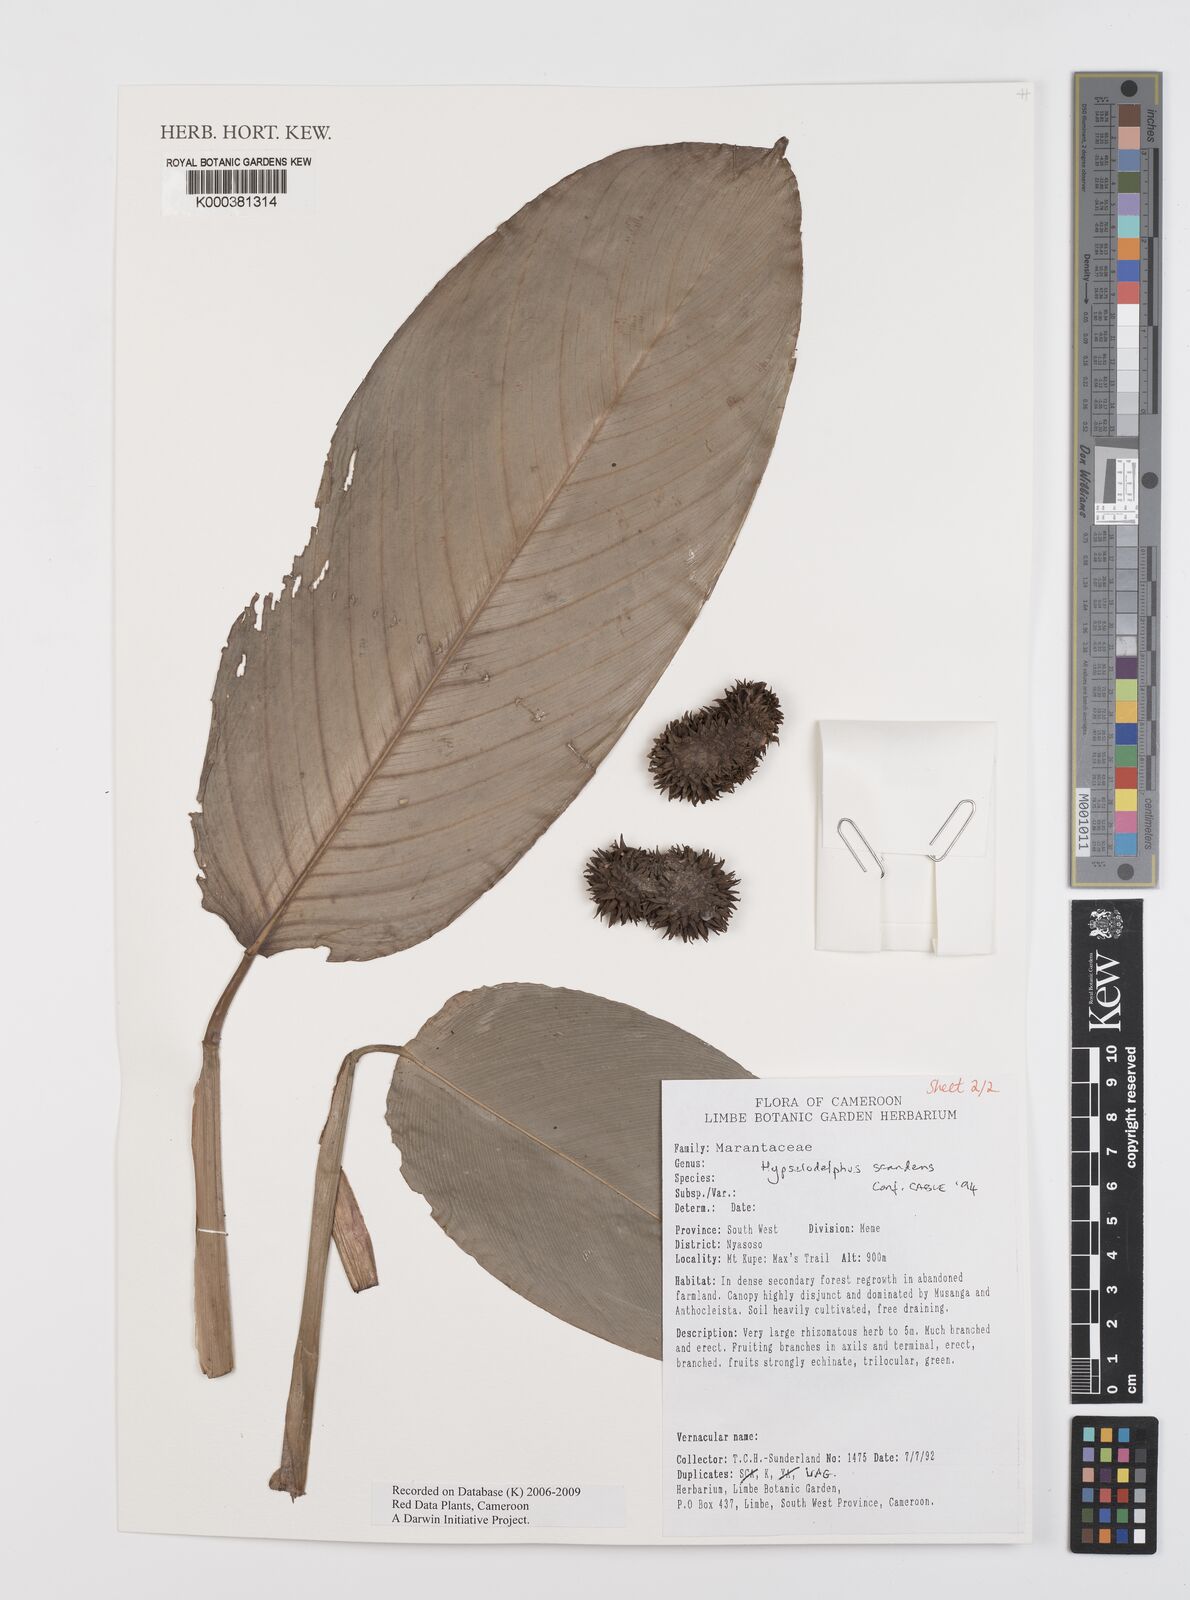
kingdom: Plantae
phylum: Tracheophyta
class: Liliopsida
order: Zingiberales
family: Marantaceae
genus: Hypselodelphys
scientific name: Hypselodelphys scandens
